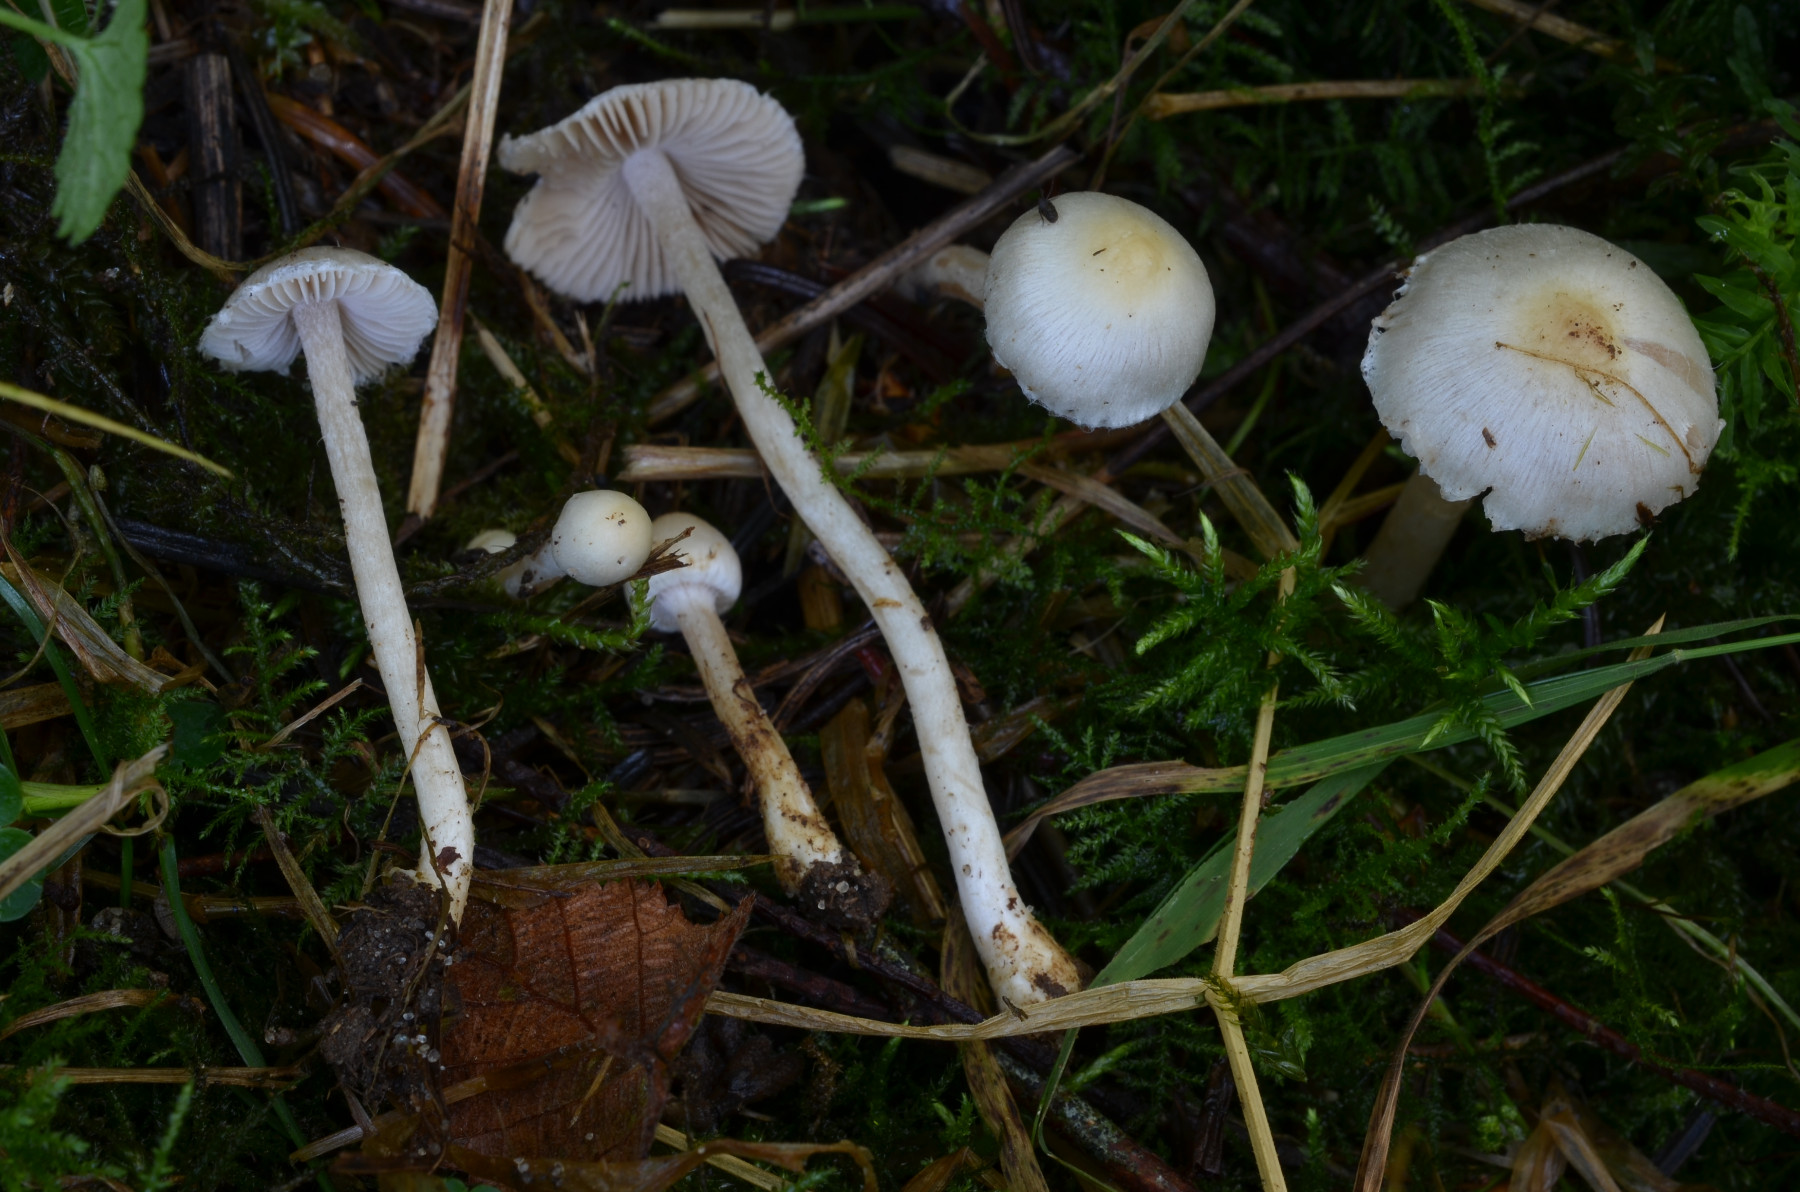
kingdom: Fungi
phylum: Basidiomycota
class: Agaricomycetes
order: Agaricales
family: Inocybaceae
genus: Inocybe
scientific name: Inocybe bellidiana
